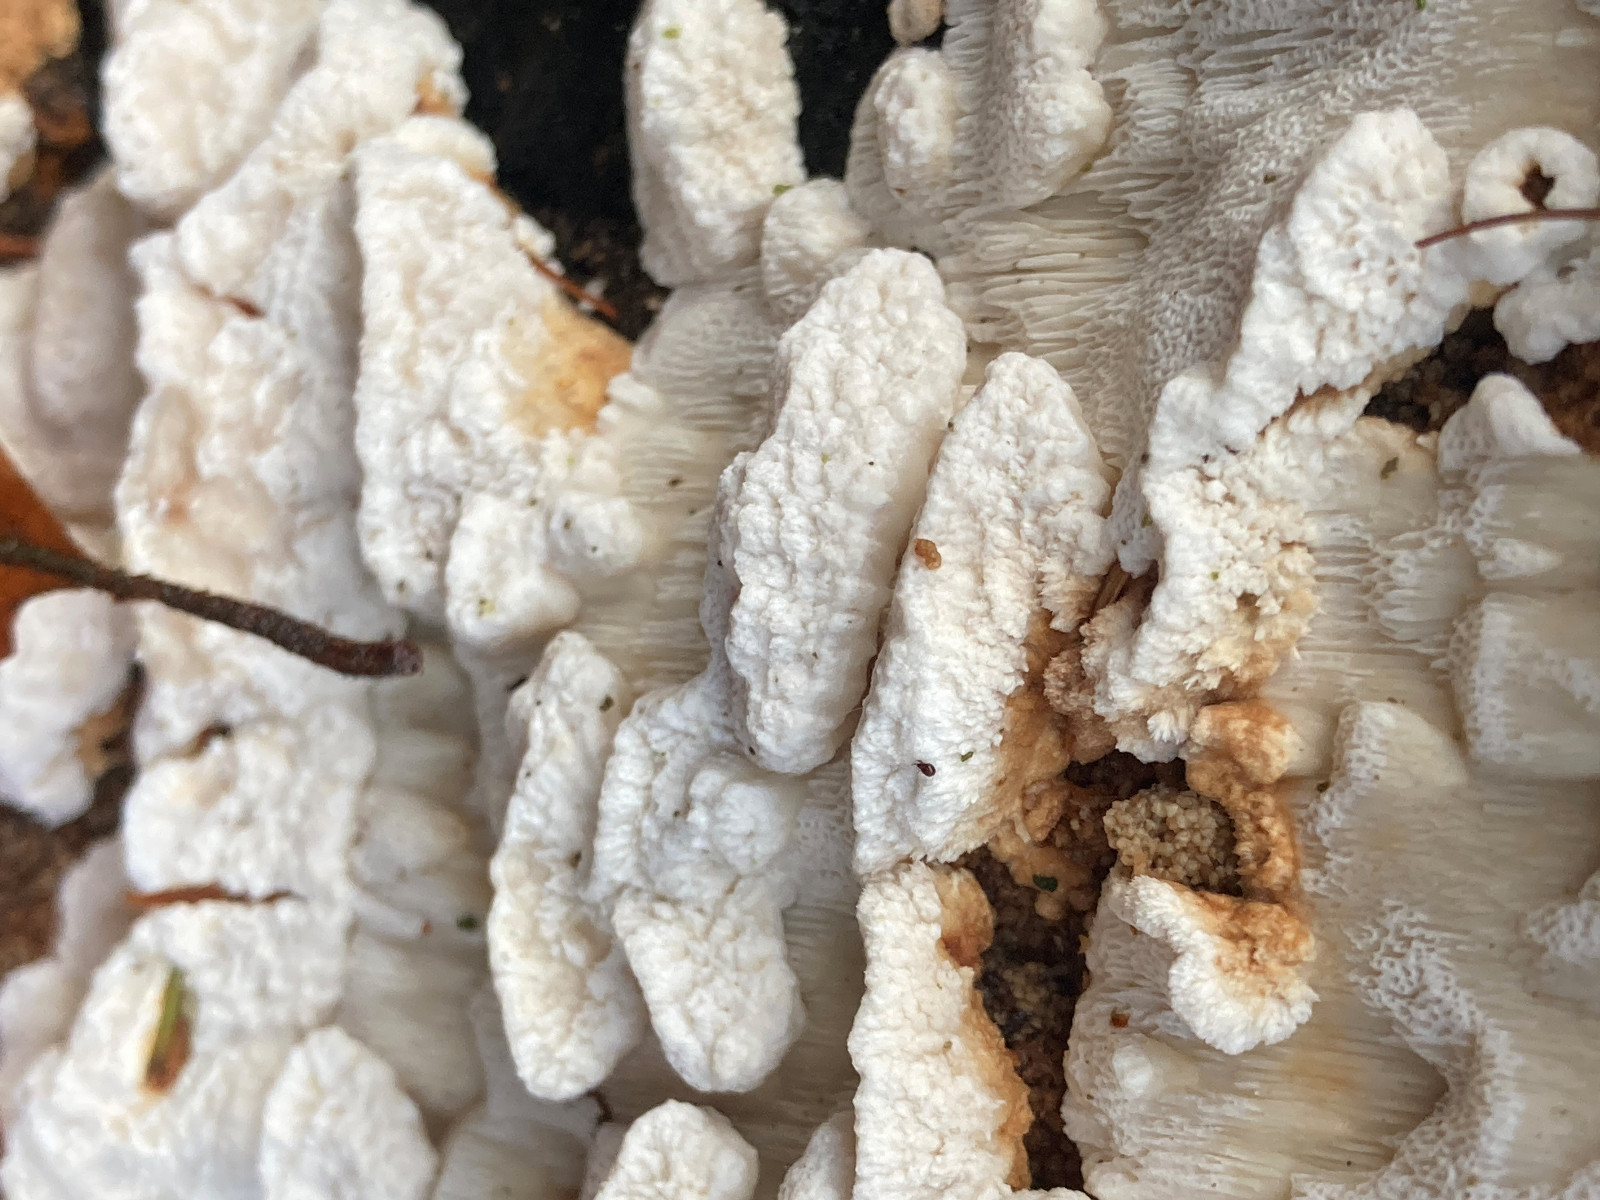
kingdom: Fungi
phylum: Basidiomycota
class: Agaricomycetes
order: Polyporales
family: Fomitopsidaceae
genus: Neoantrodia
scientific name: Neoantrodia serialis
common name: række-sejporesvamp
